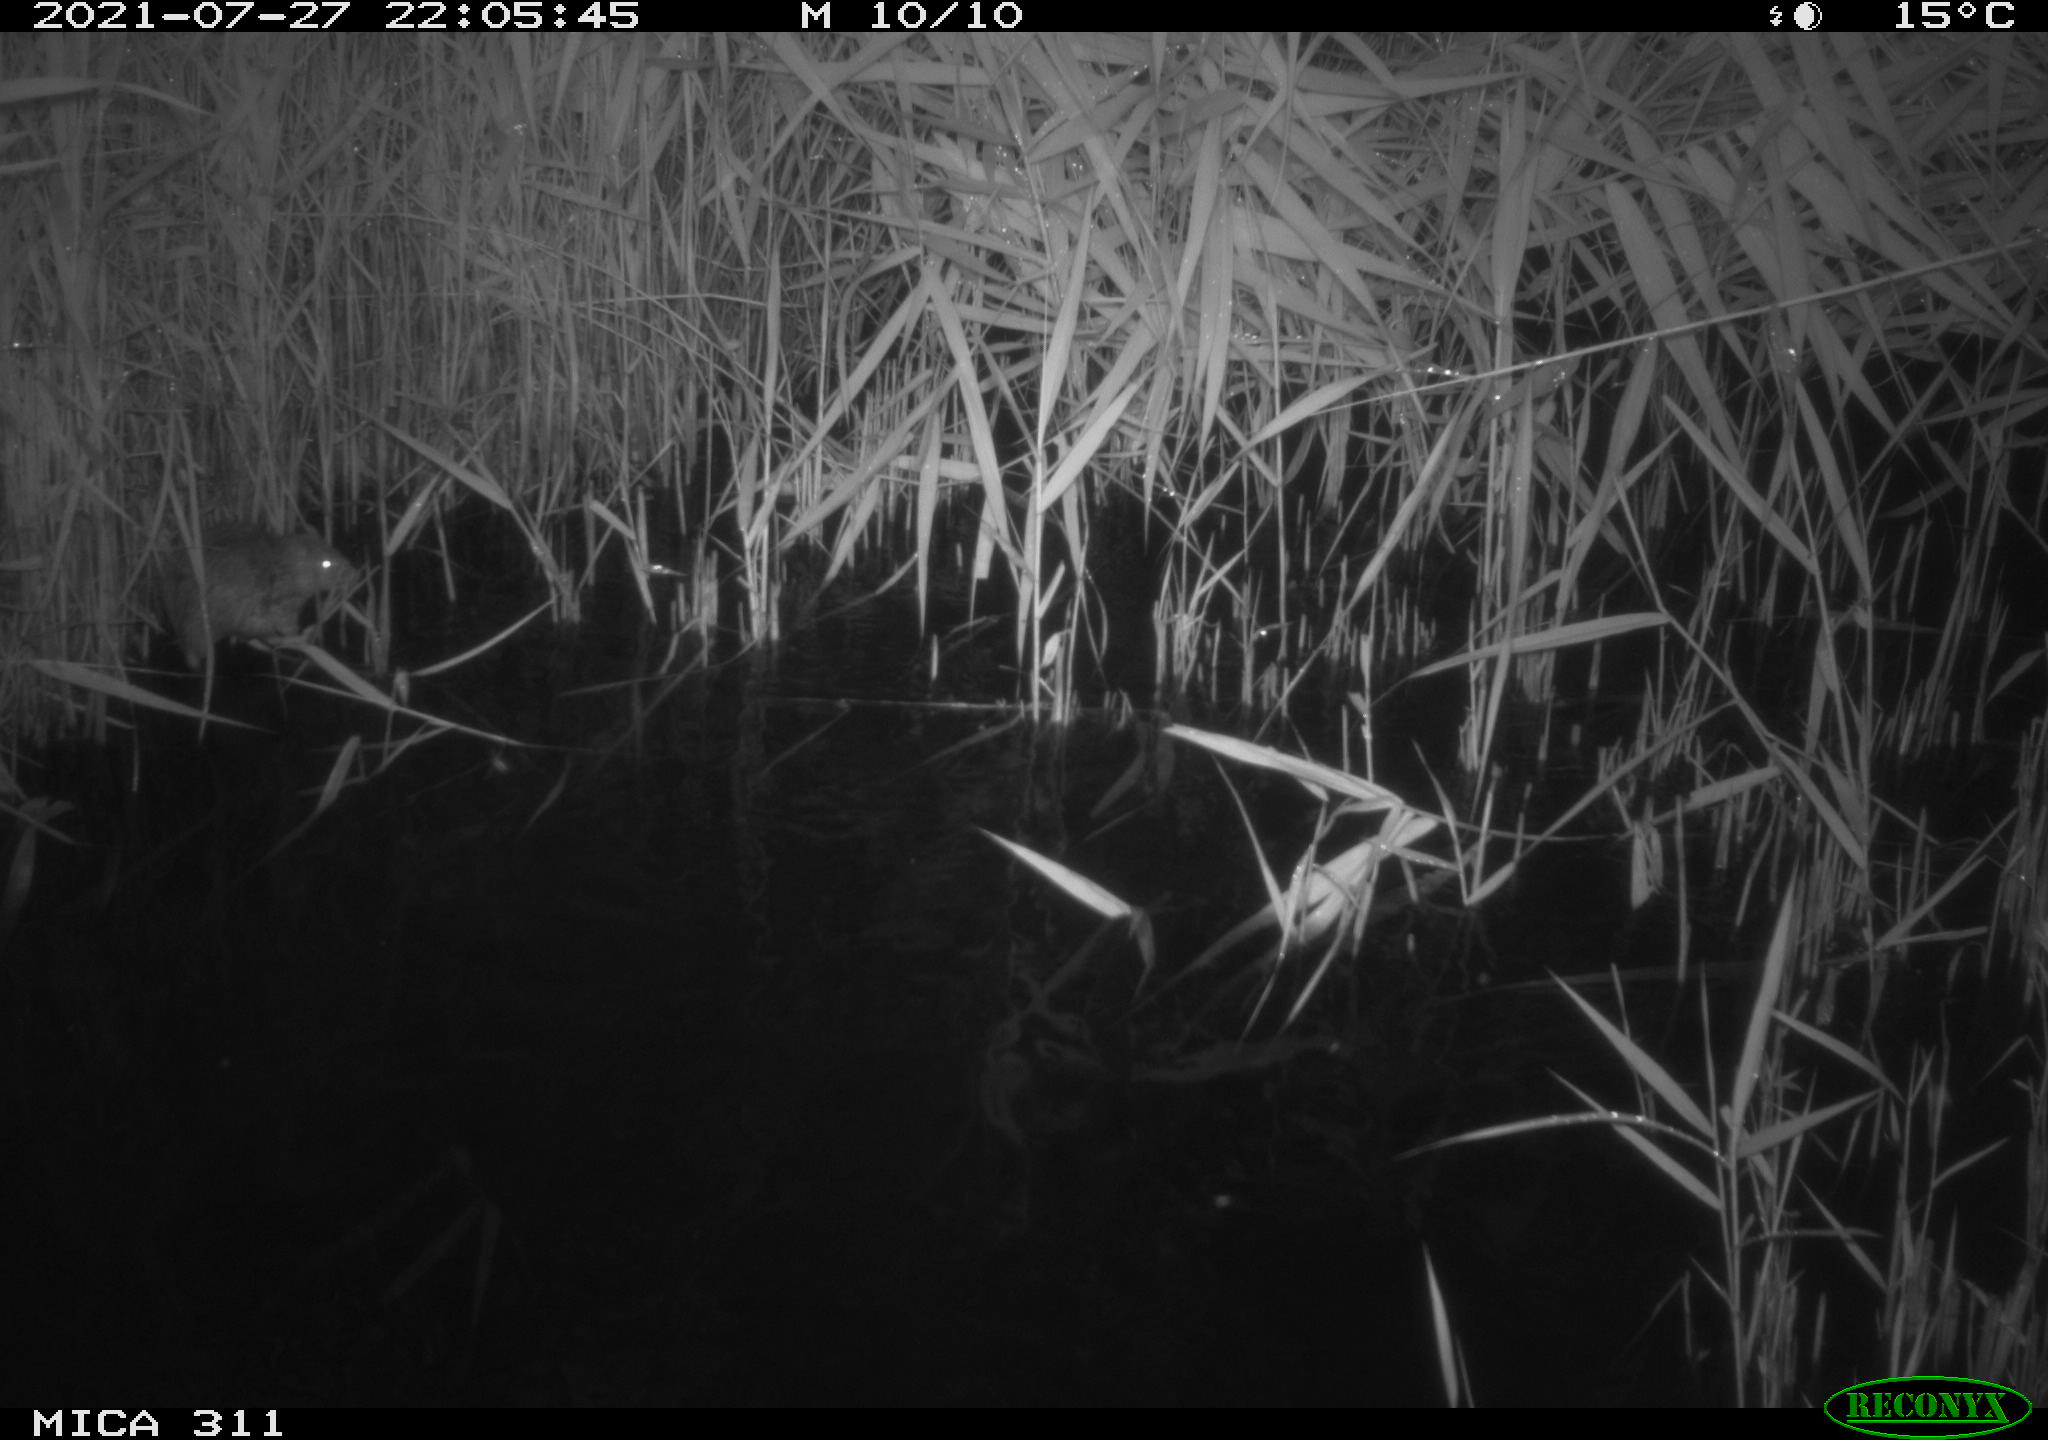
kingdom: Animalia
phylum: Chordata
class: Mammalia
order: Rodentia
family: Muridae
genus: Rattus
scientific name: Rattus norvegicus
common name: Brown rat
